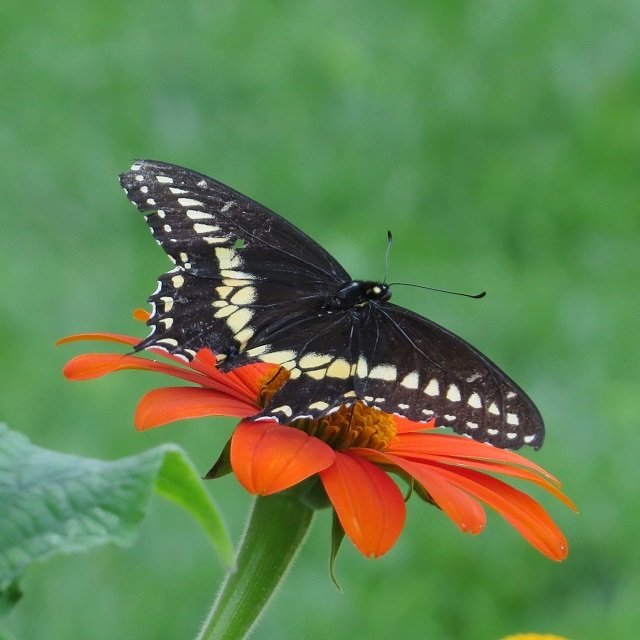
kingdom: Animalia
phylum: Arthropoda
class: Insecta
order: Lepidoptera
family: Papilionidae
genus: Papilio
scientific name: Papilio polyxenes
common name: Black Swallowtail
